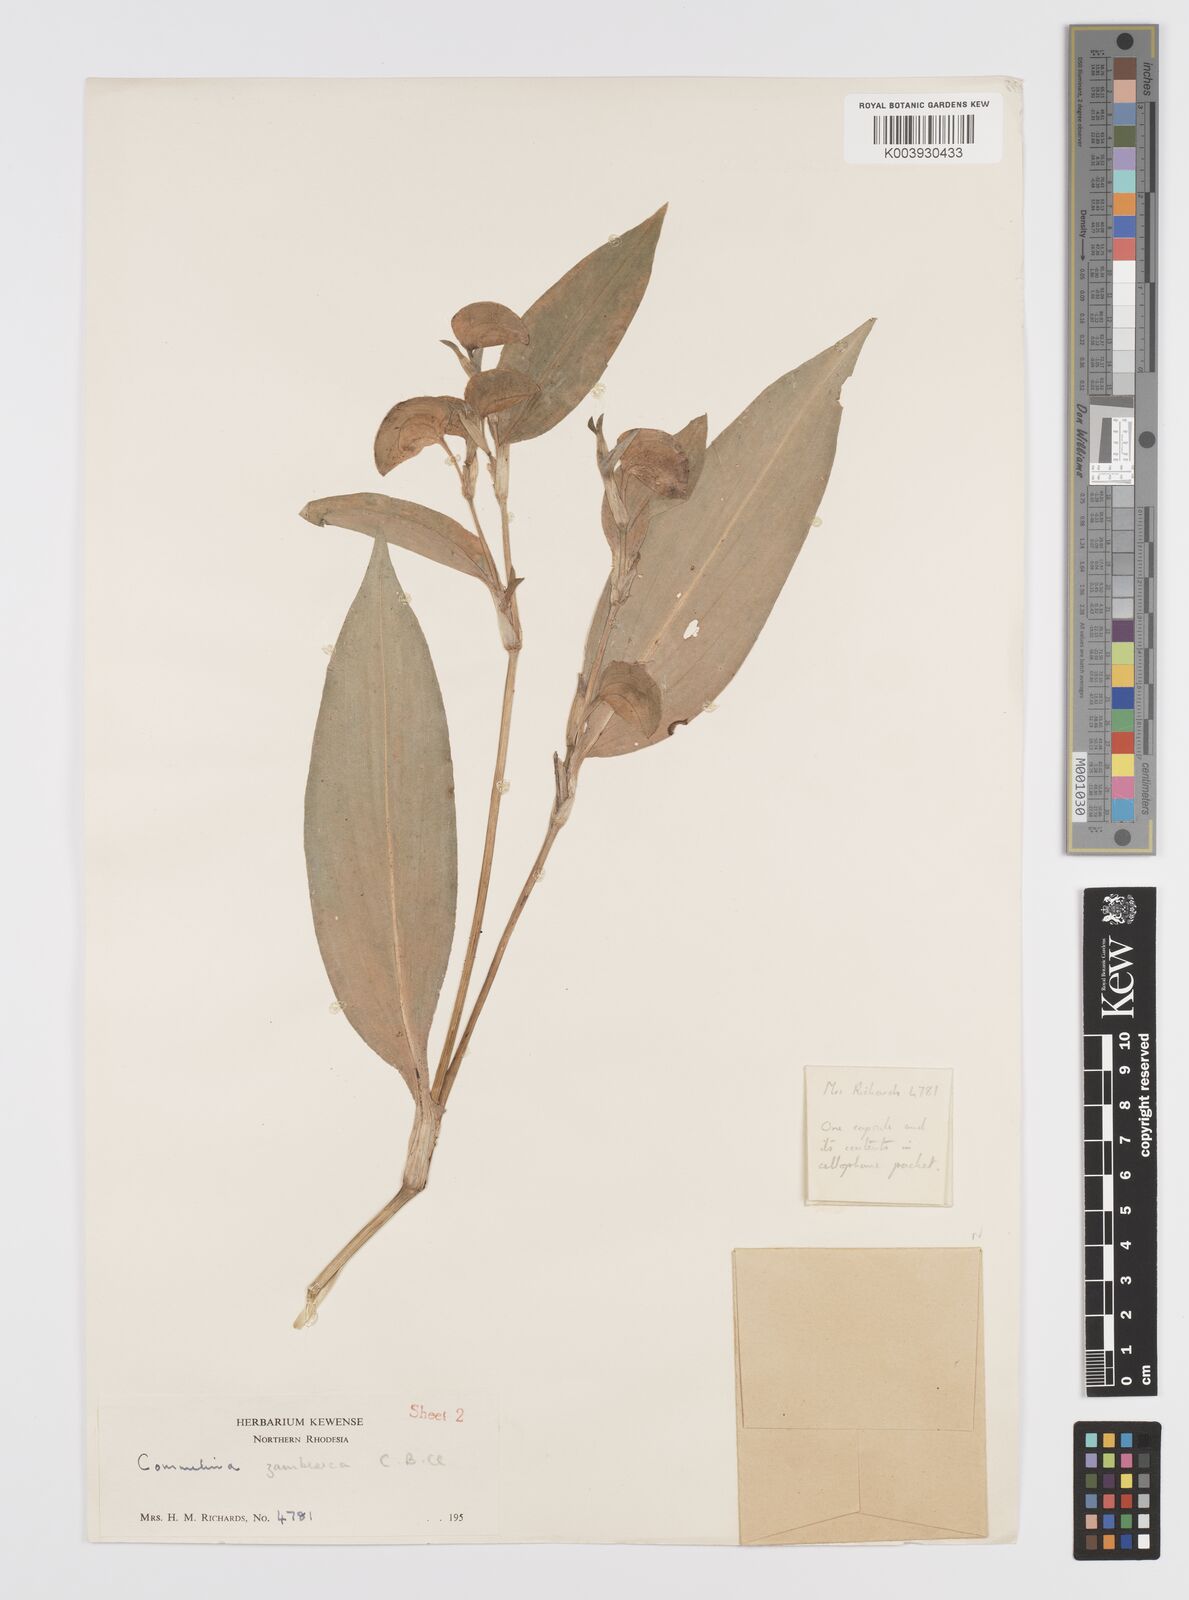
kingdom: Plantae
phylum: Tracheophyta
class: Liliopsida
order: Commelinales
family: Commelinaceae
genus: Commelina
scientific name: Commelina zambesica
